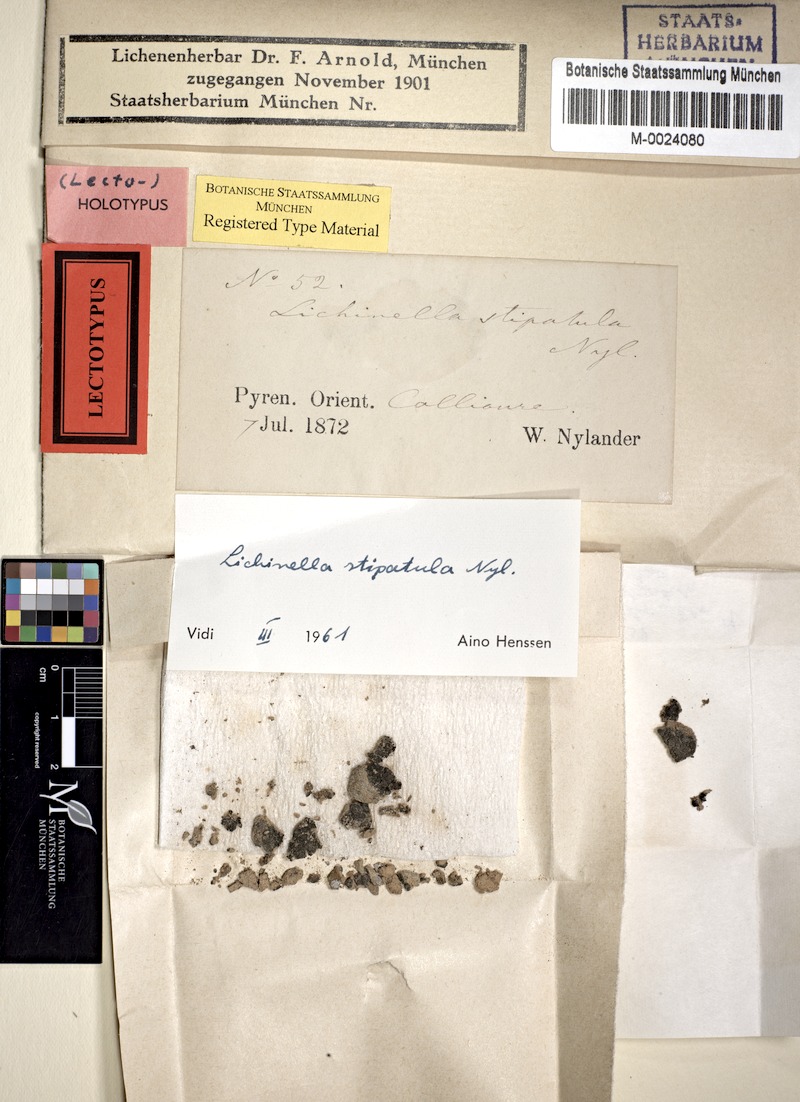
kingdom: Fungi
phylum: Ascomycota
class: Lichinomycetes
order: Lichinales
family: Lichinaceae
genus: Lichinella
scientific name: Lichinella stipatula
